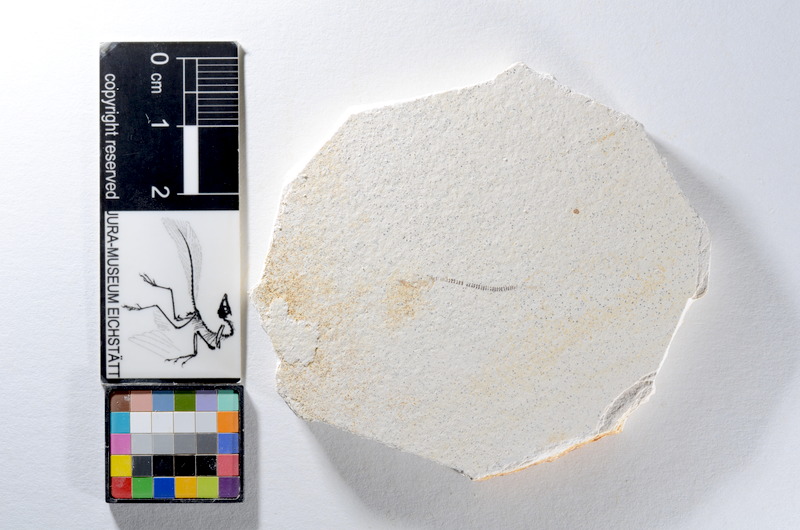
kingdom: Animalia
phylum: Chordata
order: Salmoniformes
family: Orthogonikleithridae
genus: Orthogonikleithrus
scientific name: Orthogonikleithrus hoelli
